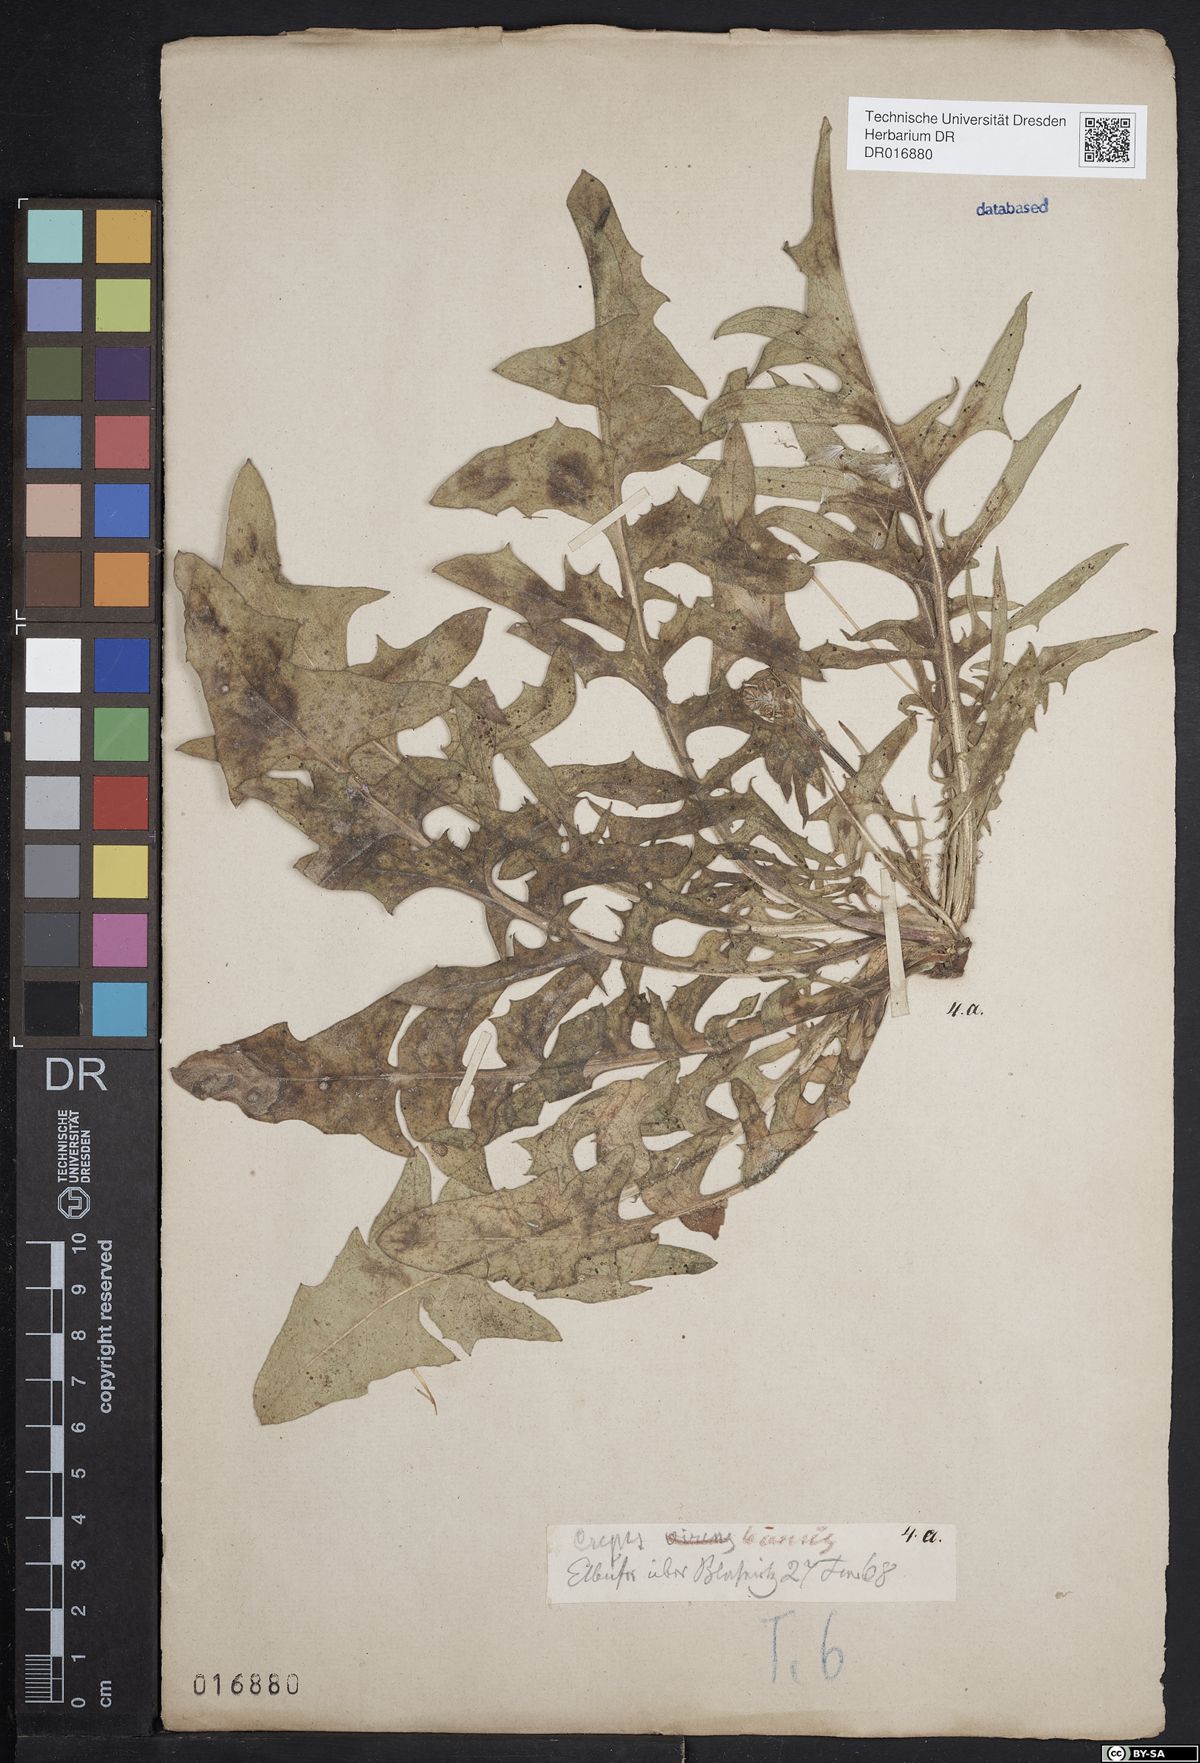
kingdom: Plantae
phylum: Tracheophyta
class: Magnoliopsida
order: Asterales
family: Asteraceae
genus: Crepis
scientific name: Crepis biennis
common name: Rough hawk's-beard
